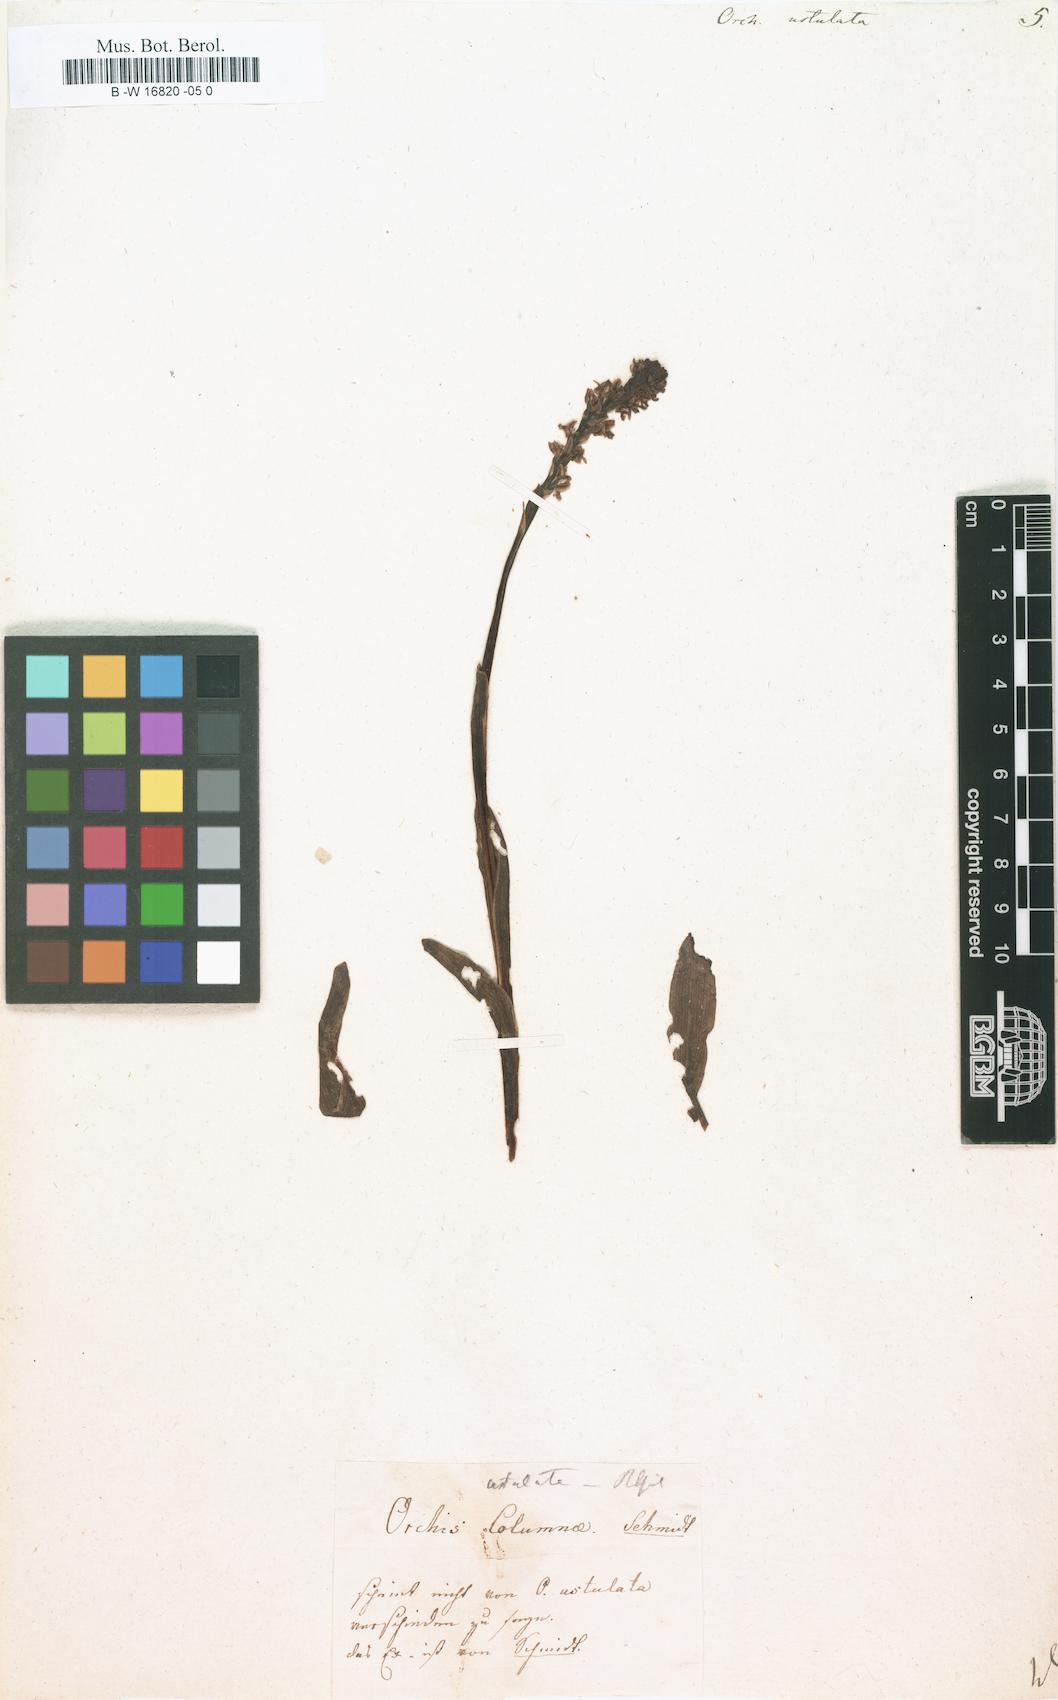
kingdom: Plantae
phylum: Tracheophyta
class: Liliopsida
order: Asparagales
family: Orchidaceae
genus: Neotinea
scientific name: Neotinea ustulata
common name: Burnt orchid
